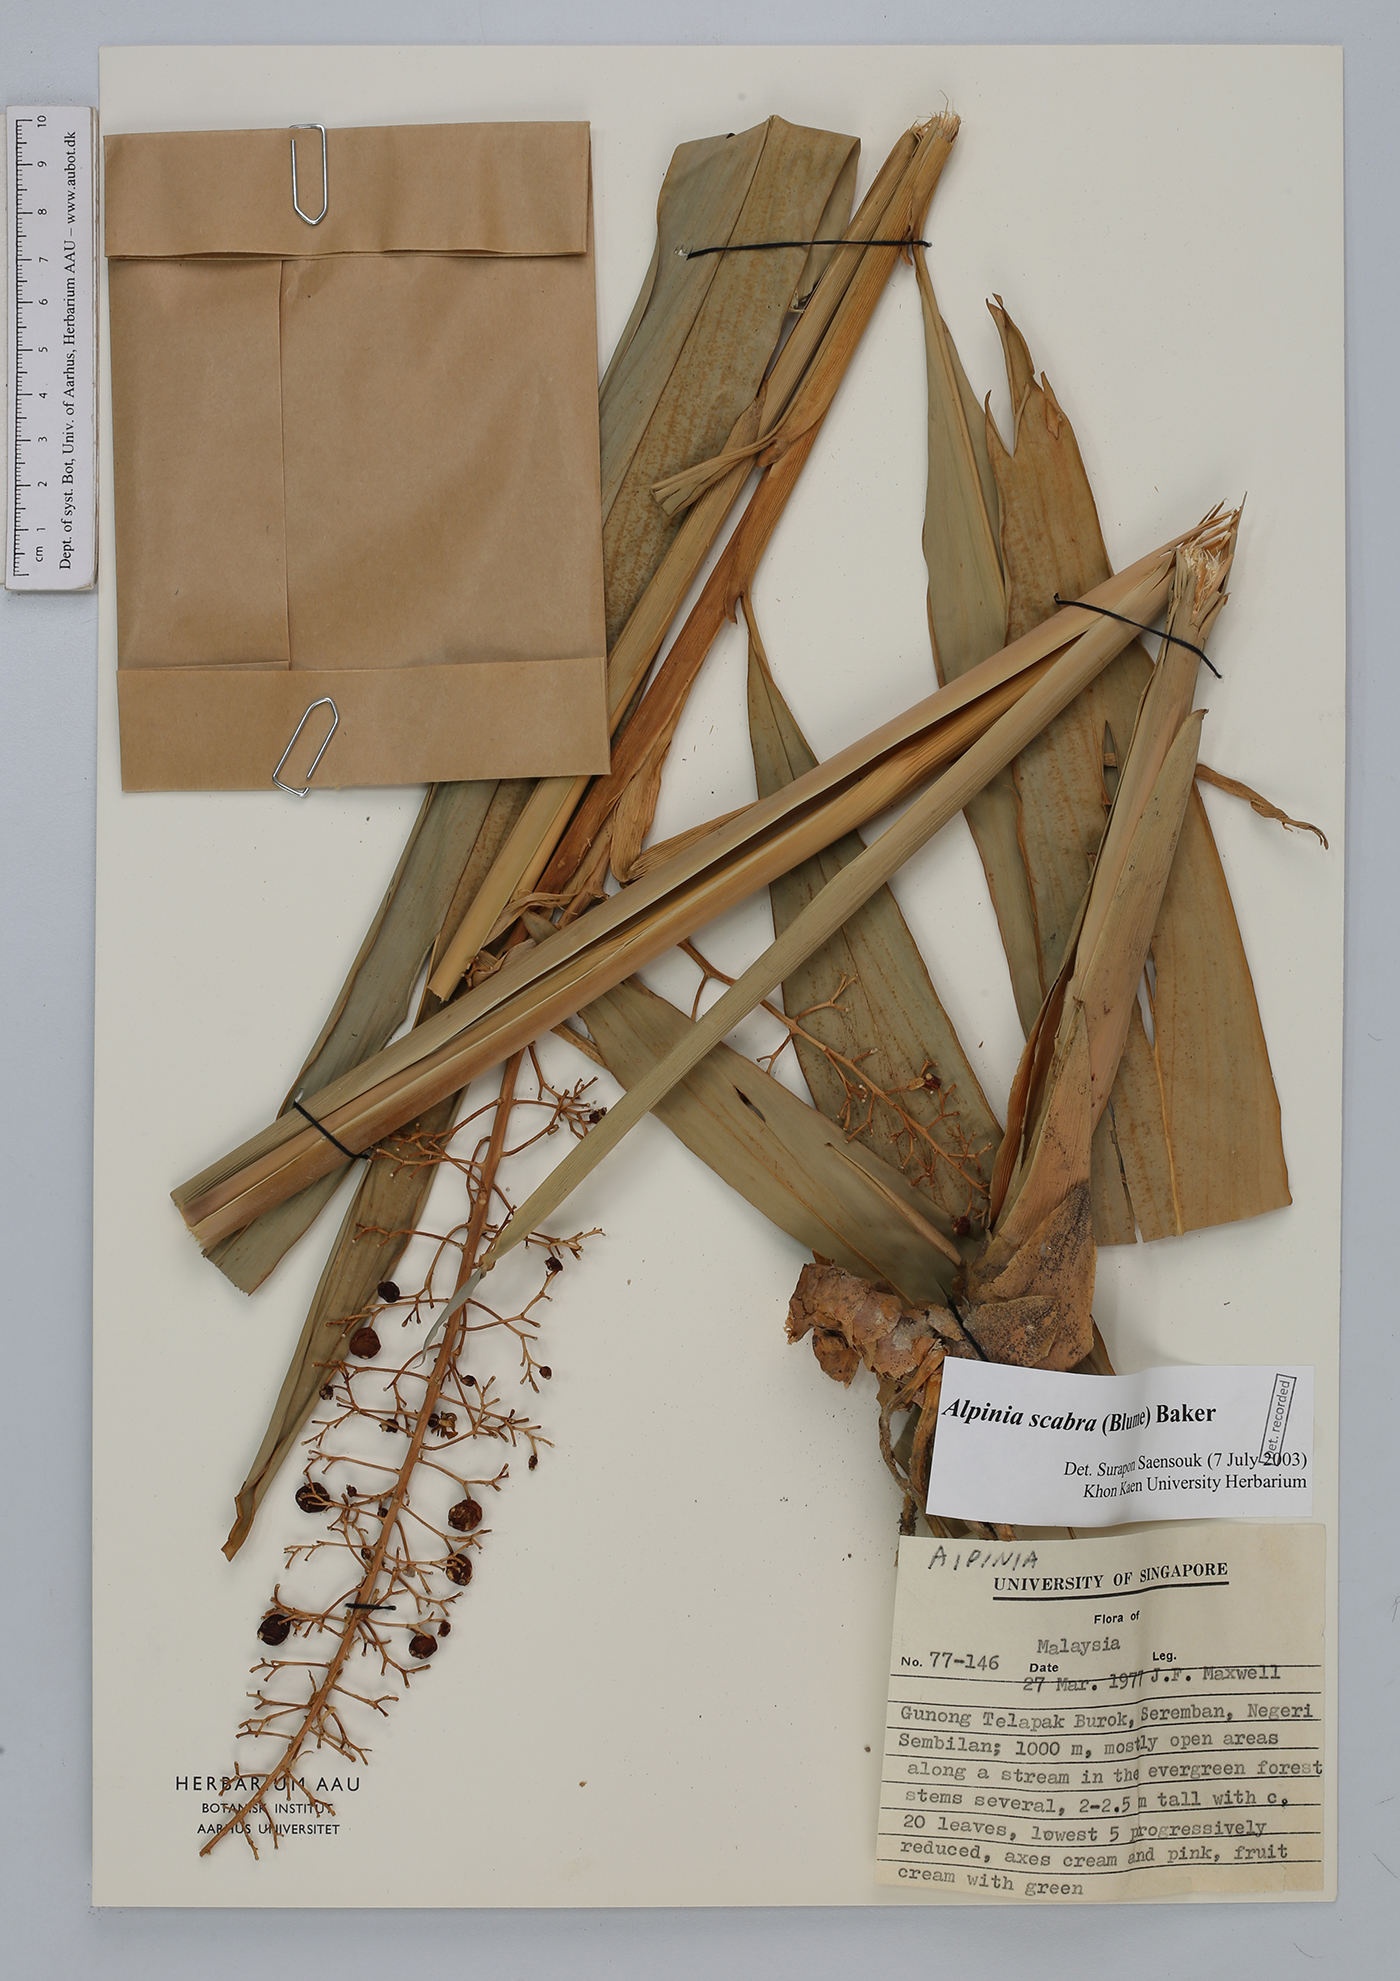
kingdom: Plantae
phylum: Tracheophyta
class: Liliopsida
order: Zingiberales
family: Zingiberaceae
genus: Alpinia
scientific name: Alpinia scabra
